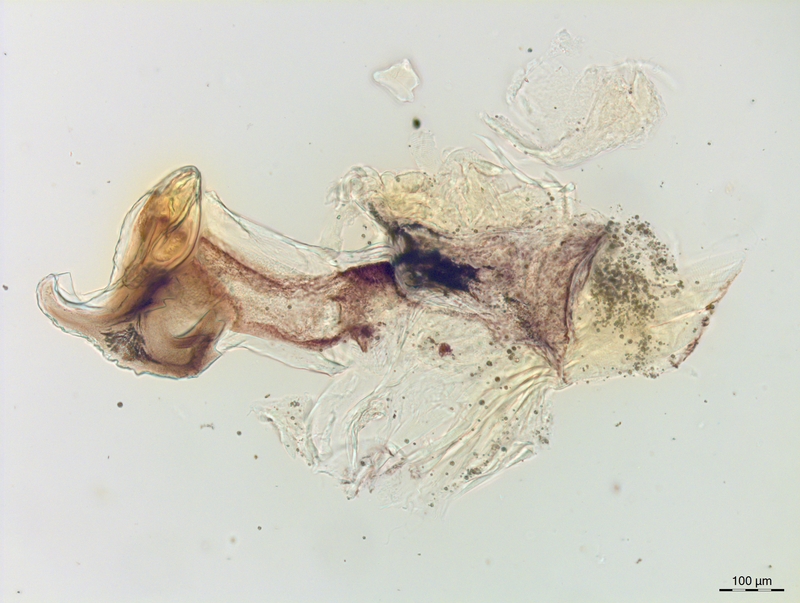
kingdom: Animalia
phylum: Arthropoda
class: Diplopoda
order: Chordeumatida
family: Craspedosomatidae
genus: Craspedosoma
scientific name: Craspedosoma alemannicum
